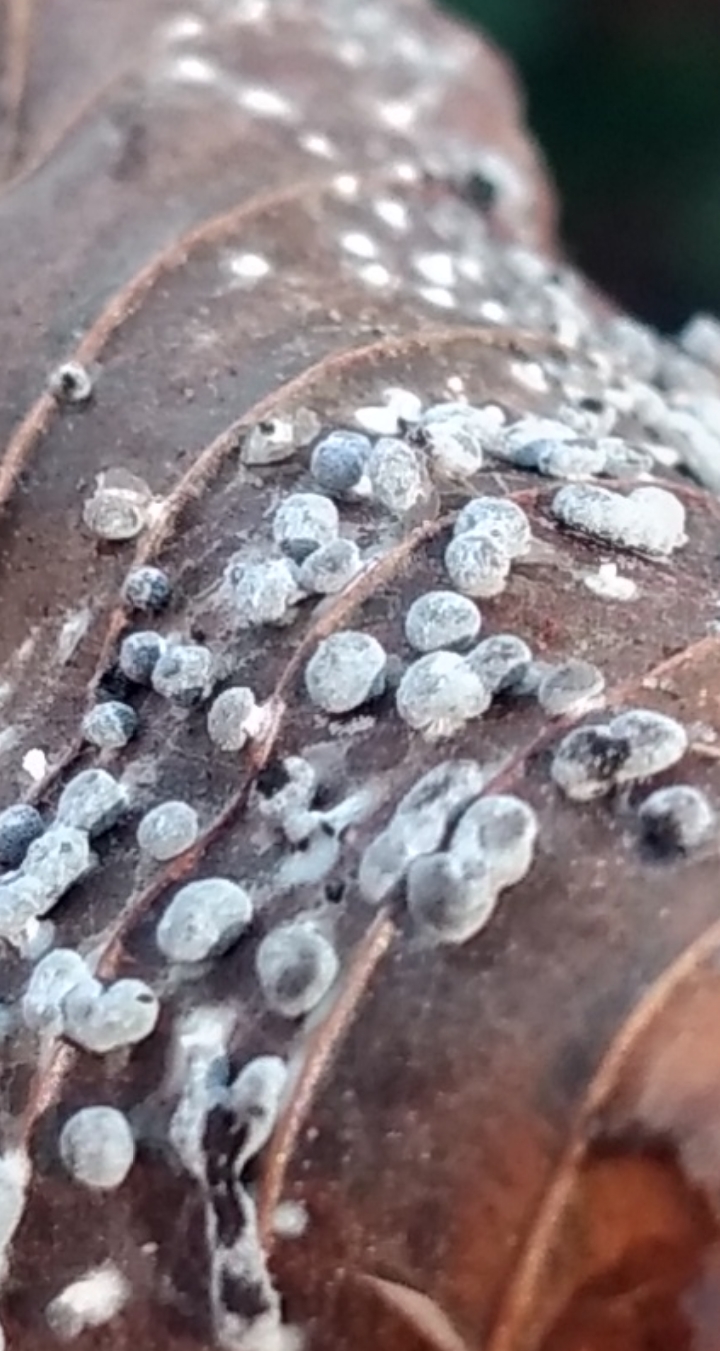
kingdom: Protozoa
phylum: Mycetozoa
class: Myxomycetes
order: Physarales
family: Didymiaceae
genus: Didymium
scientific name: Didymium squamulosum
